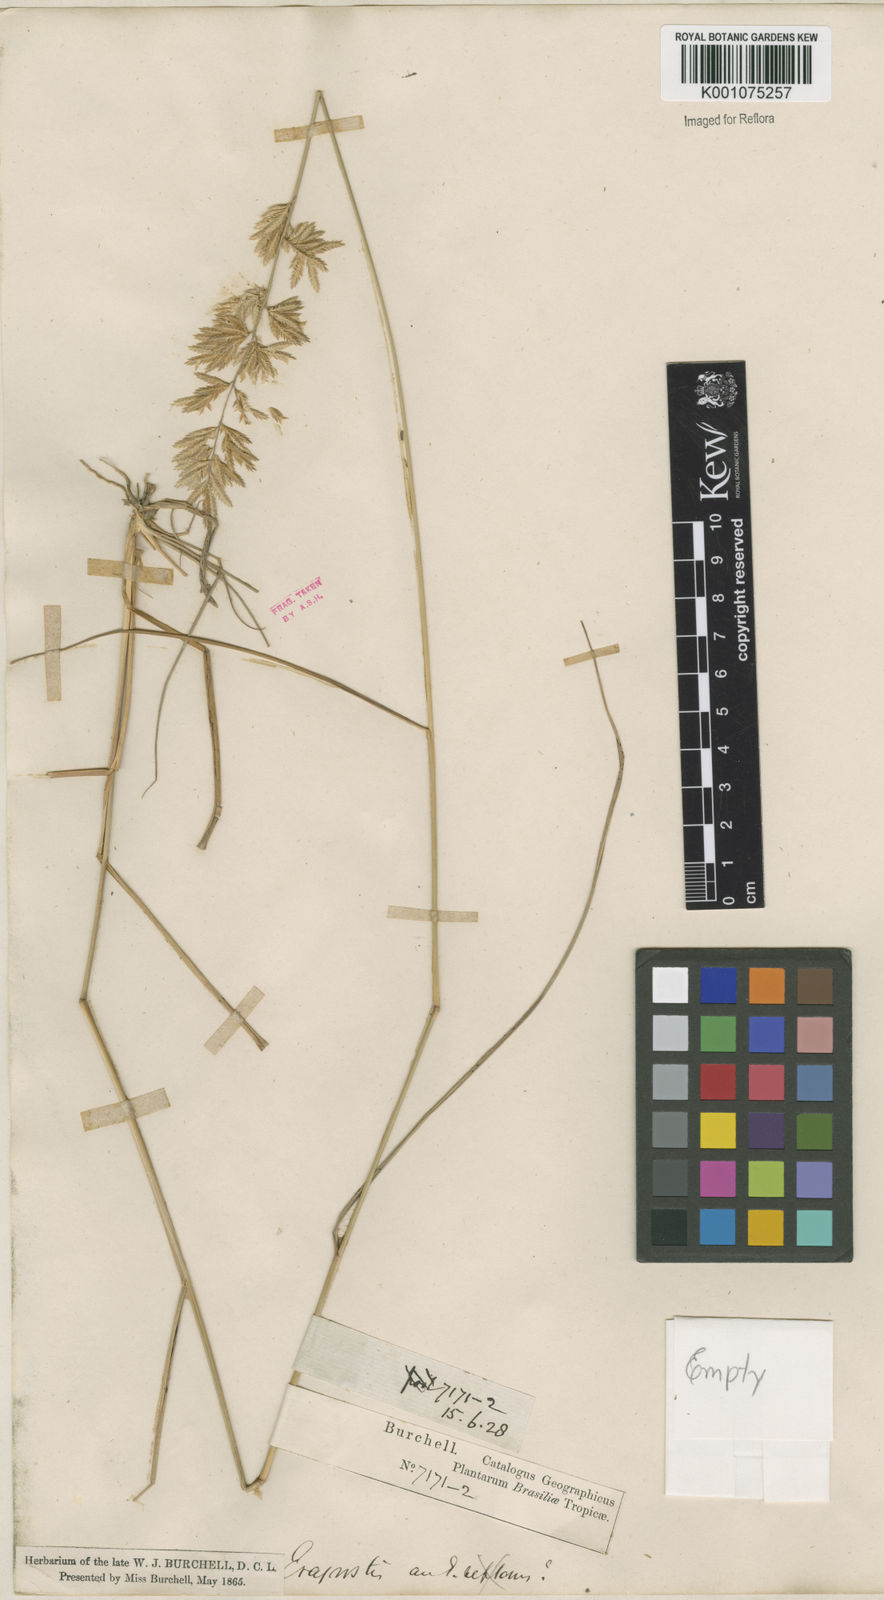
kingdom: Plantae
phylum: Tracheophyta
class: Liliopsida
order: Poales
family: Poaceae
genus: Eragrostis
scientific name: Eragrostis secundiflora
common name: Red love grass
